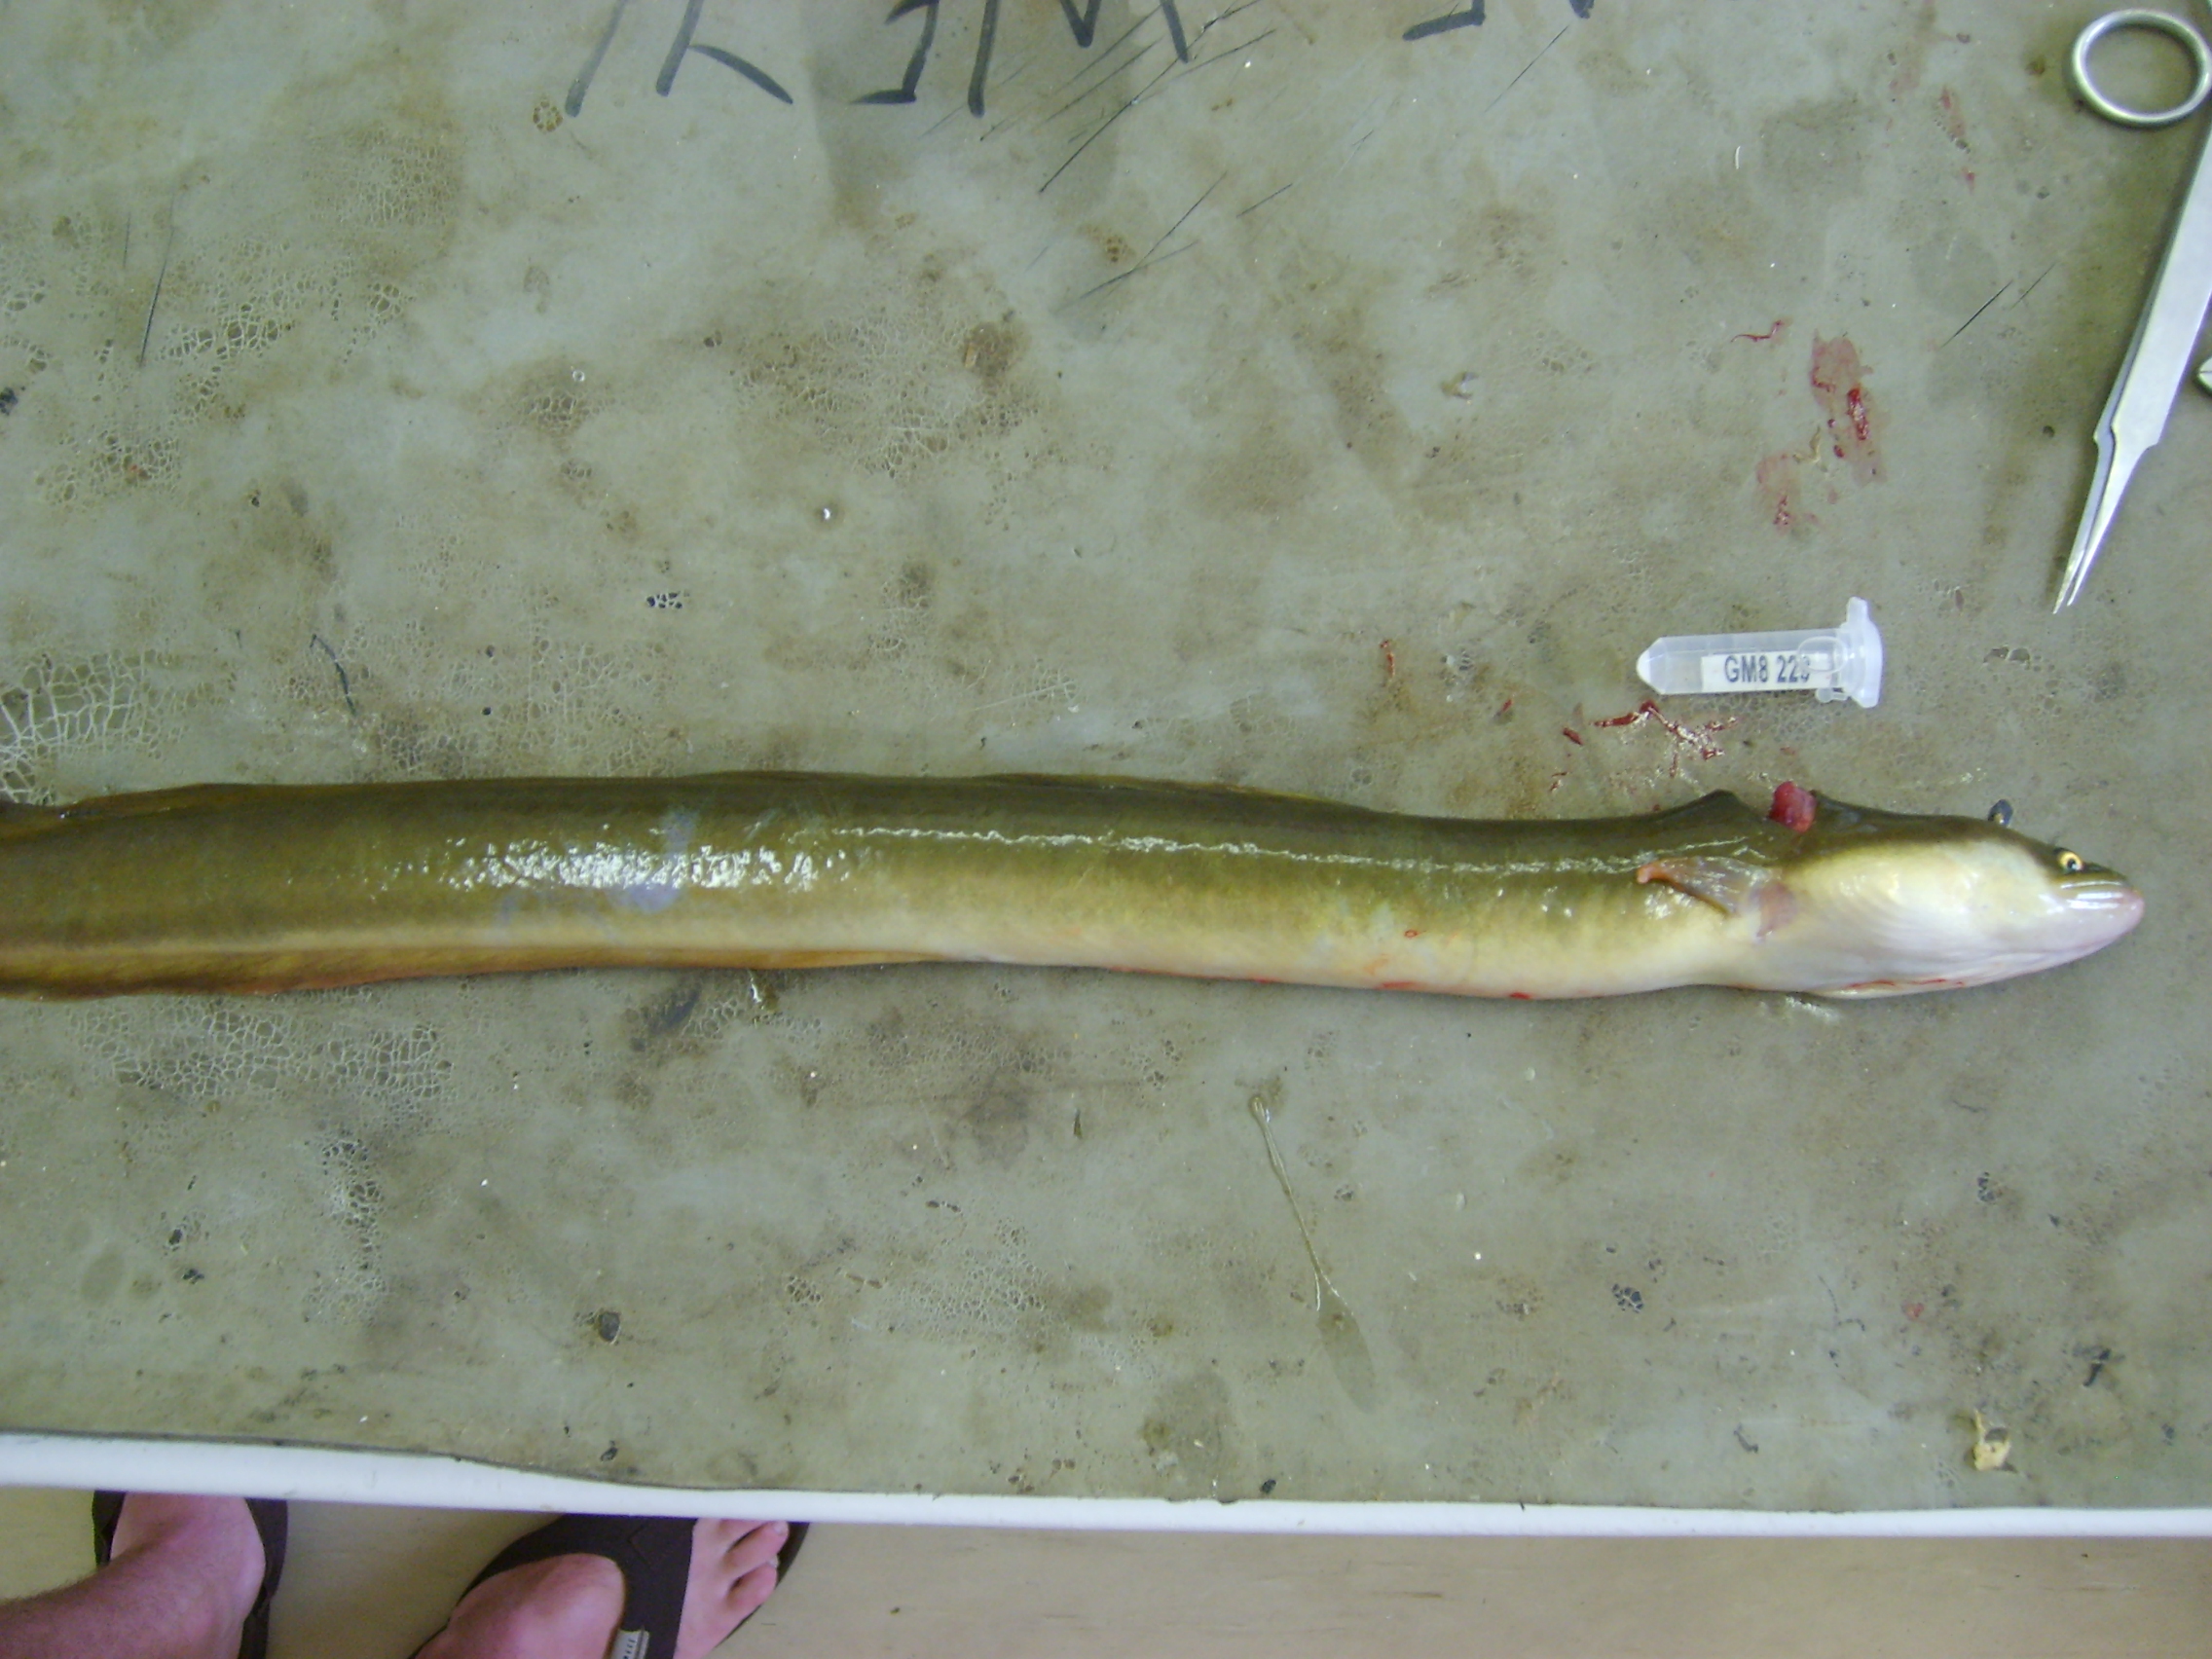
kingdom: Animalia
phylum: Chordata
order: Anguilliformes
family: Anguillidae
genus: Anguilla
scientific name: Anguilla mossambica
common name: African longfin eel
